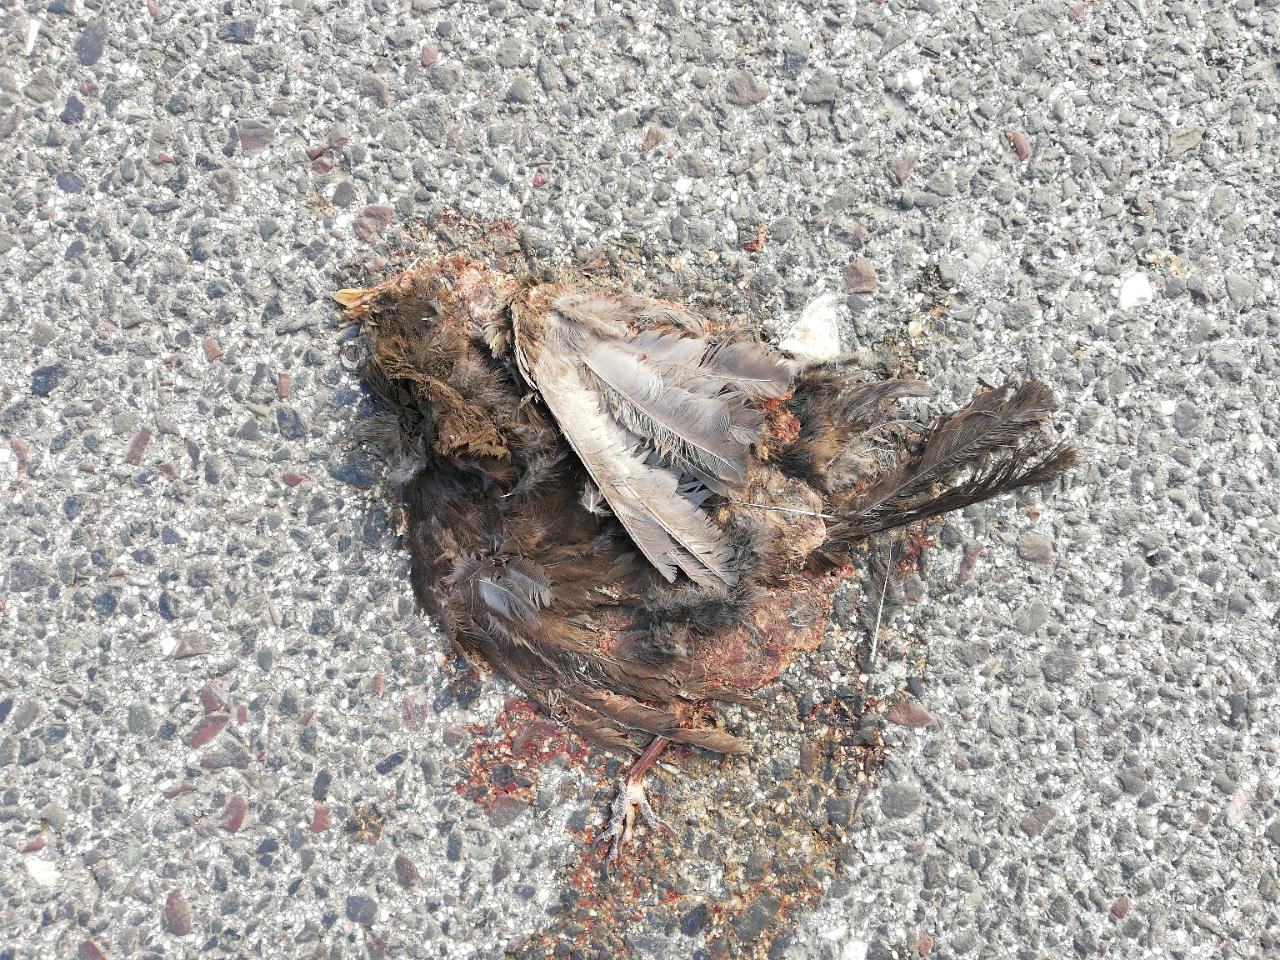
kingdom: Animalia
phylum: Chordata
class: Aves
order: Passeriformes
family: Turdidae
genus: Turdus
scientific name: Turdus merula
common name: Common blackbird
